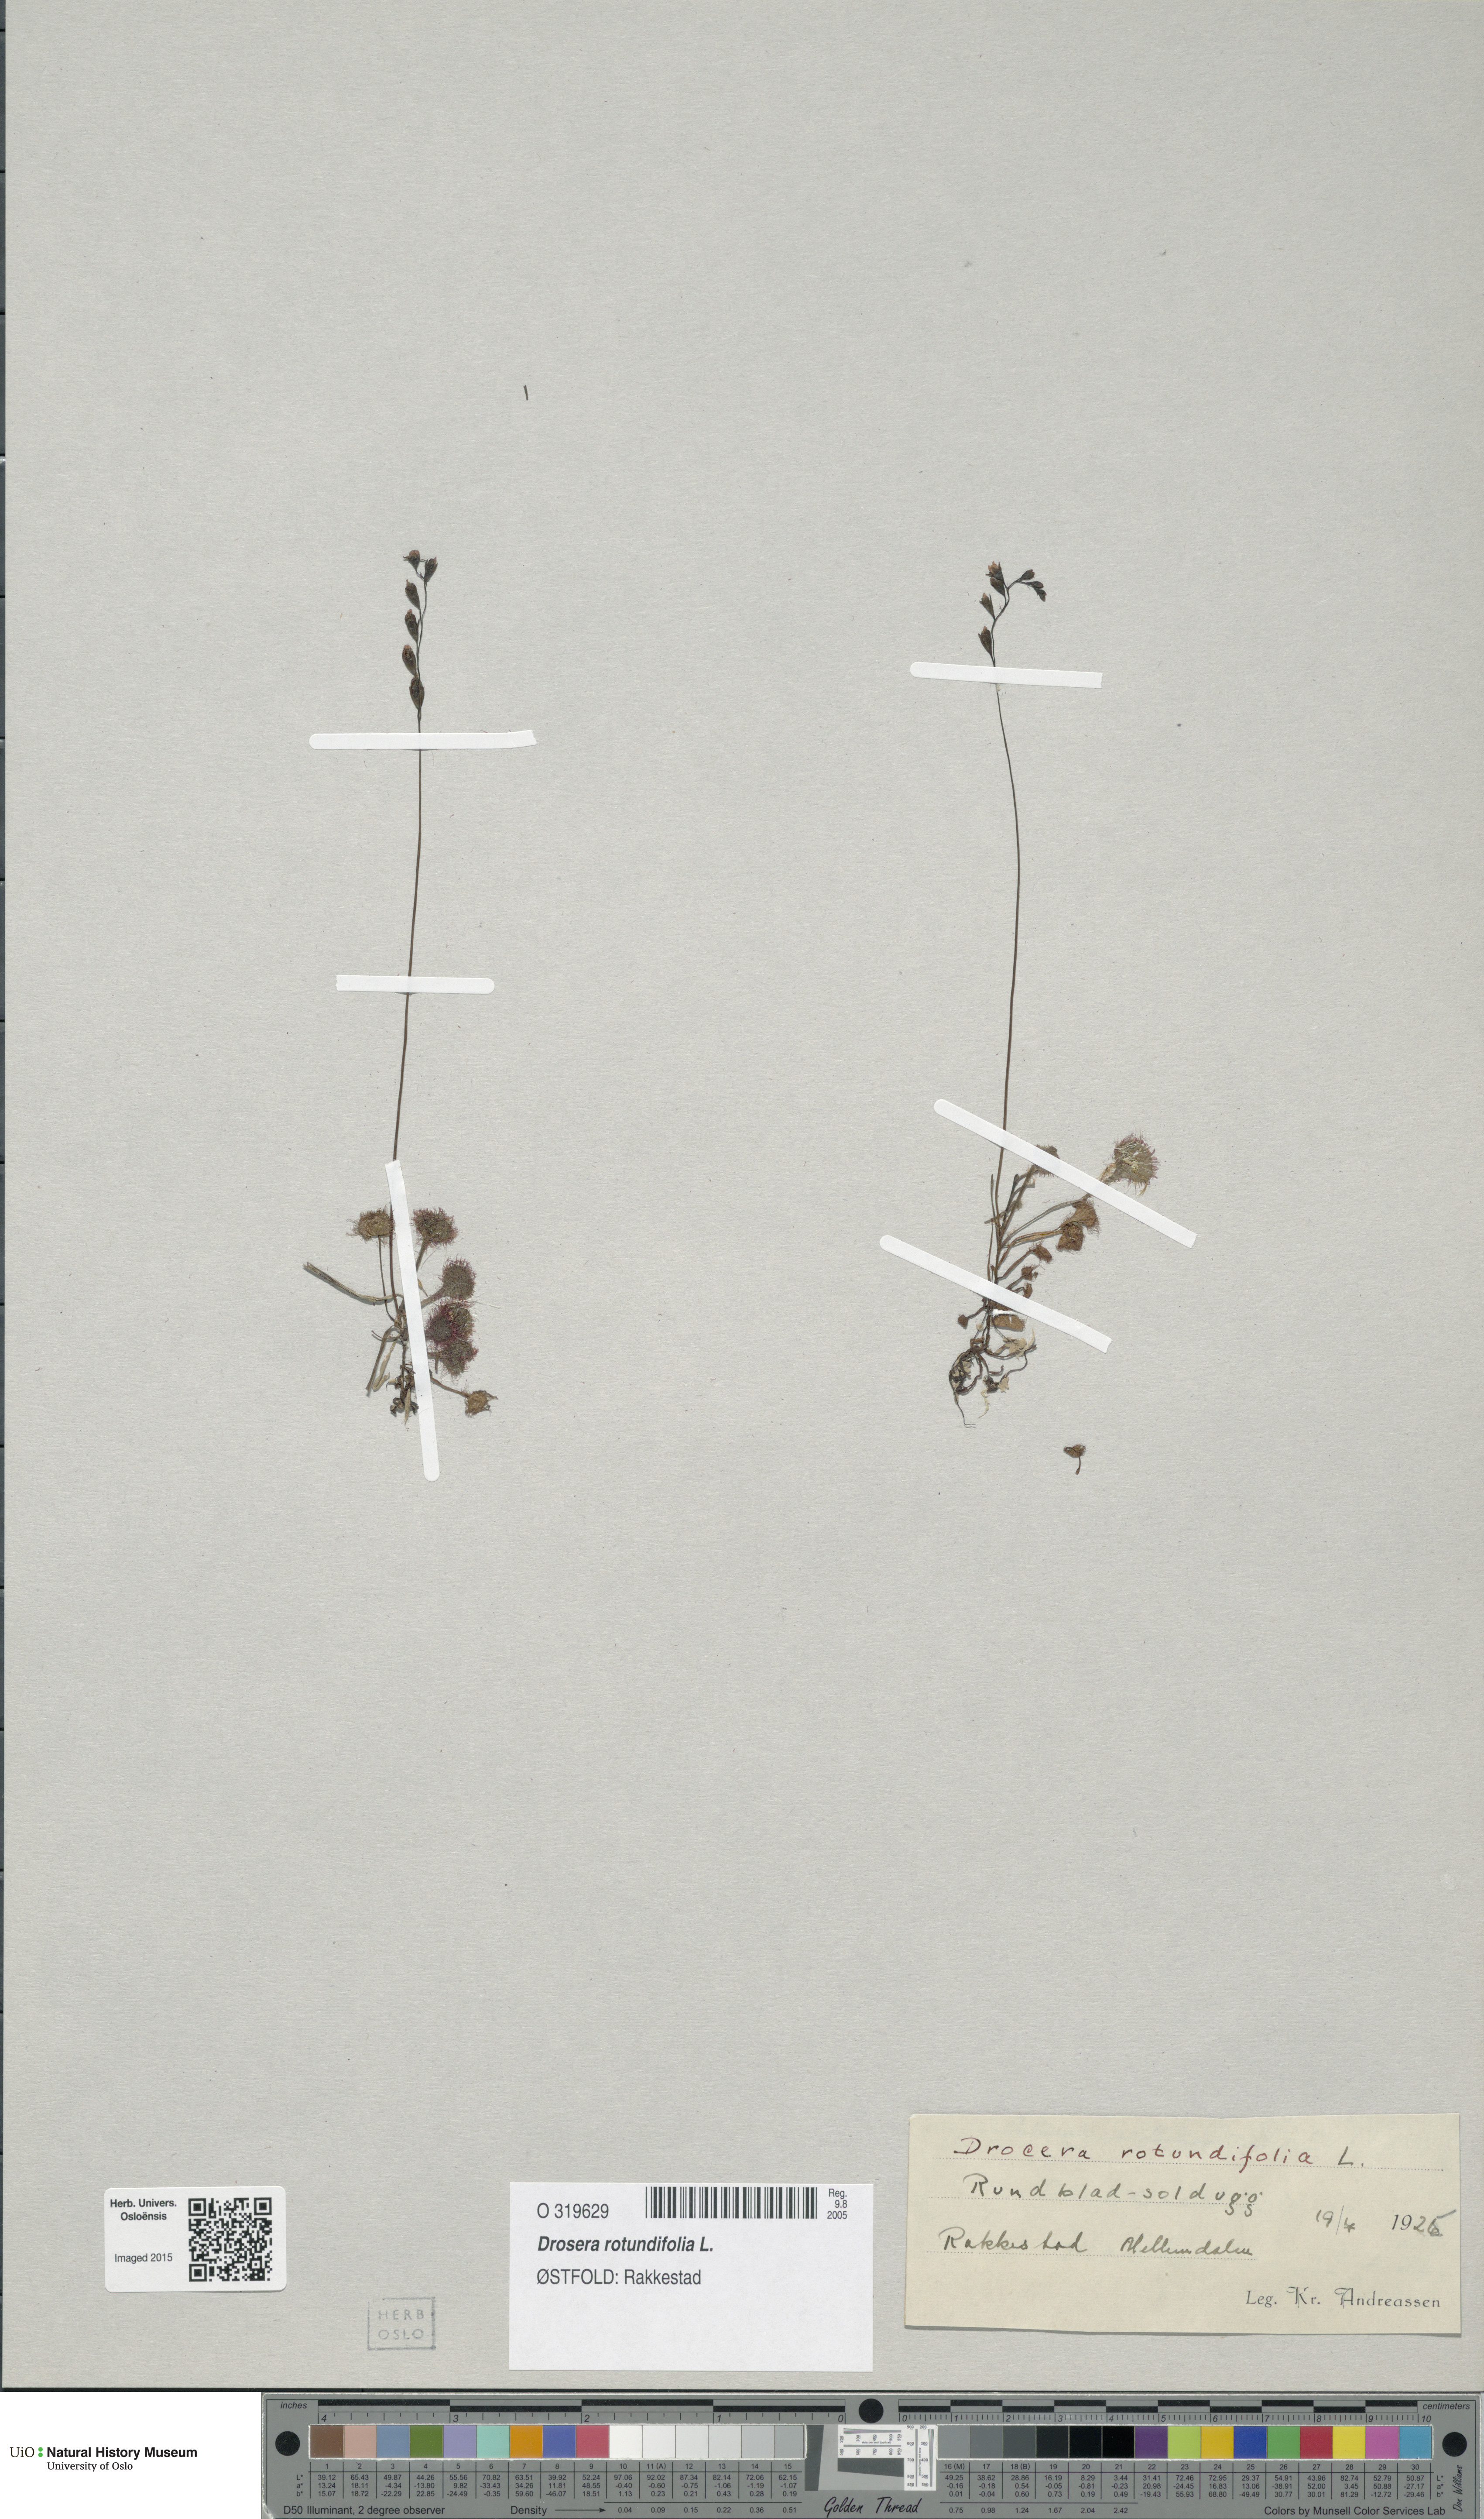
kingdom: Plantae
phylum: Tracheophyta
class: Magnoliopsida
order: Caryophyllales
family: Droseraceae
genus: Drosera
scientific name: Drosera rotundifolia
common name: Round-leaved sundew
